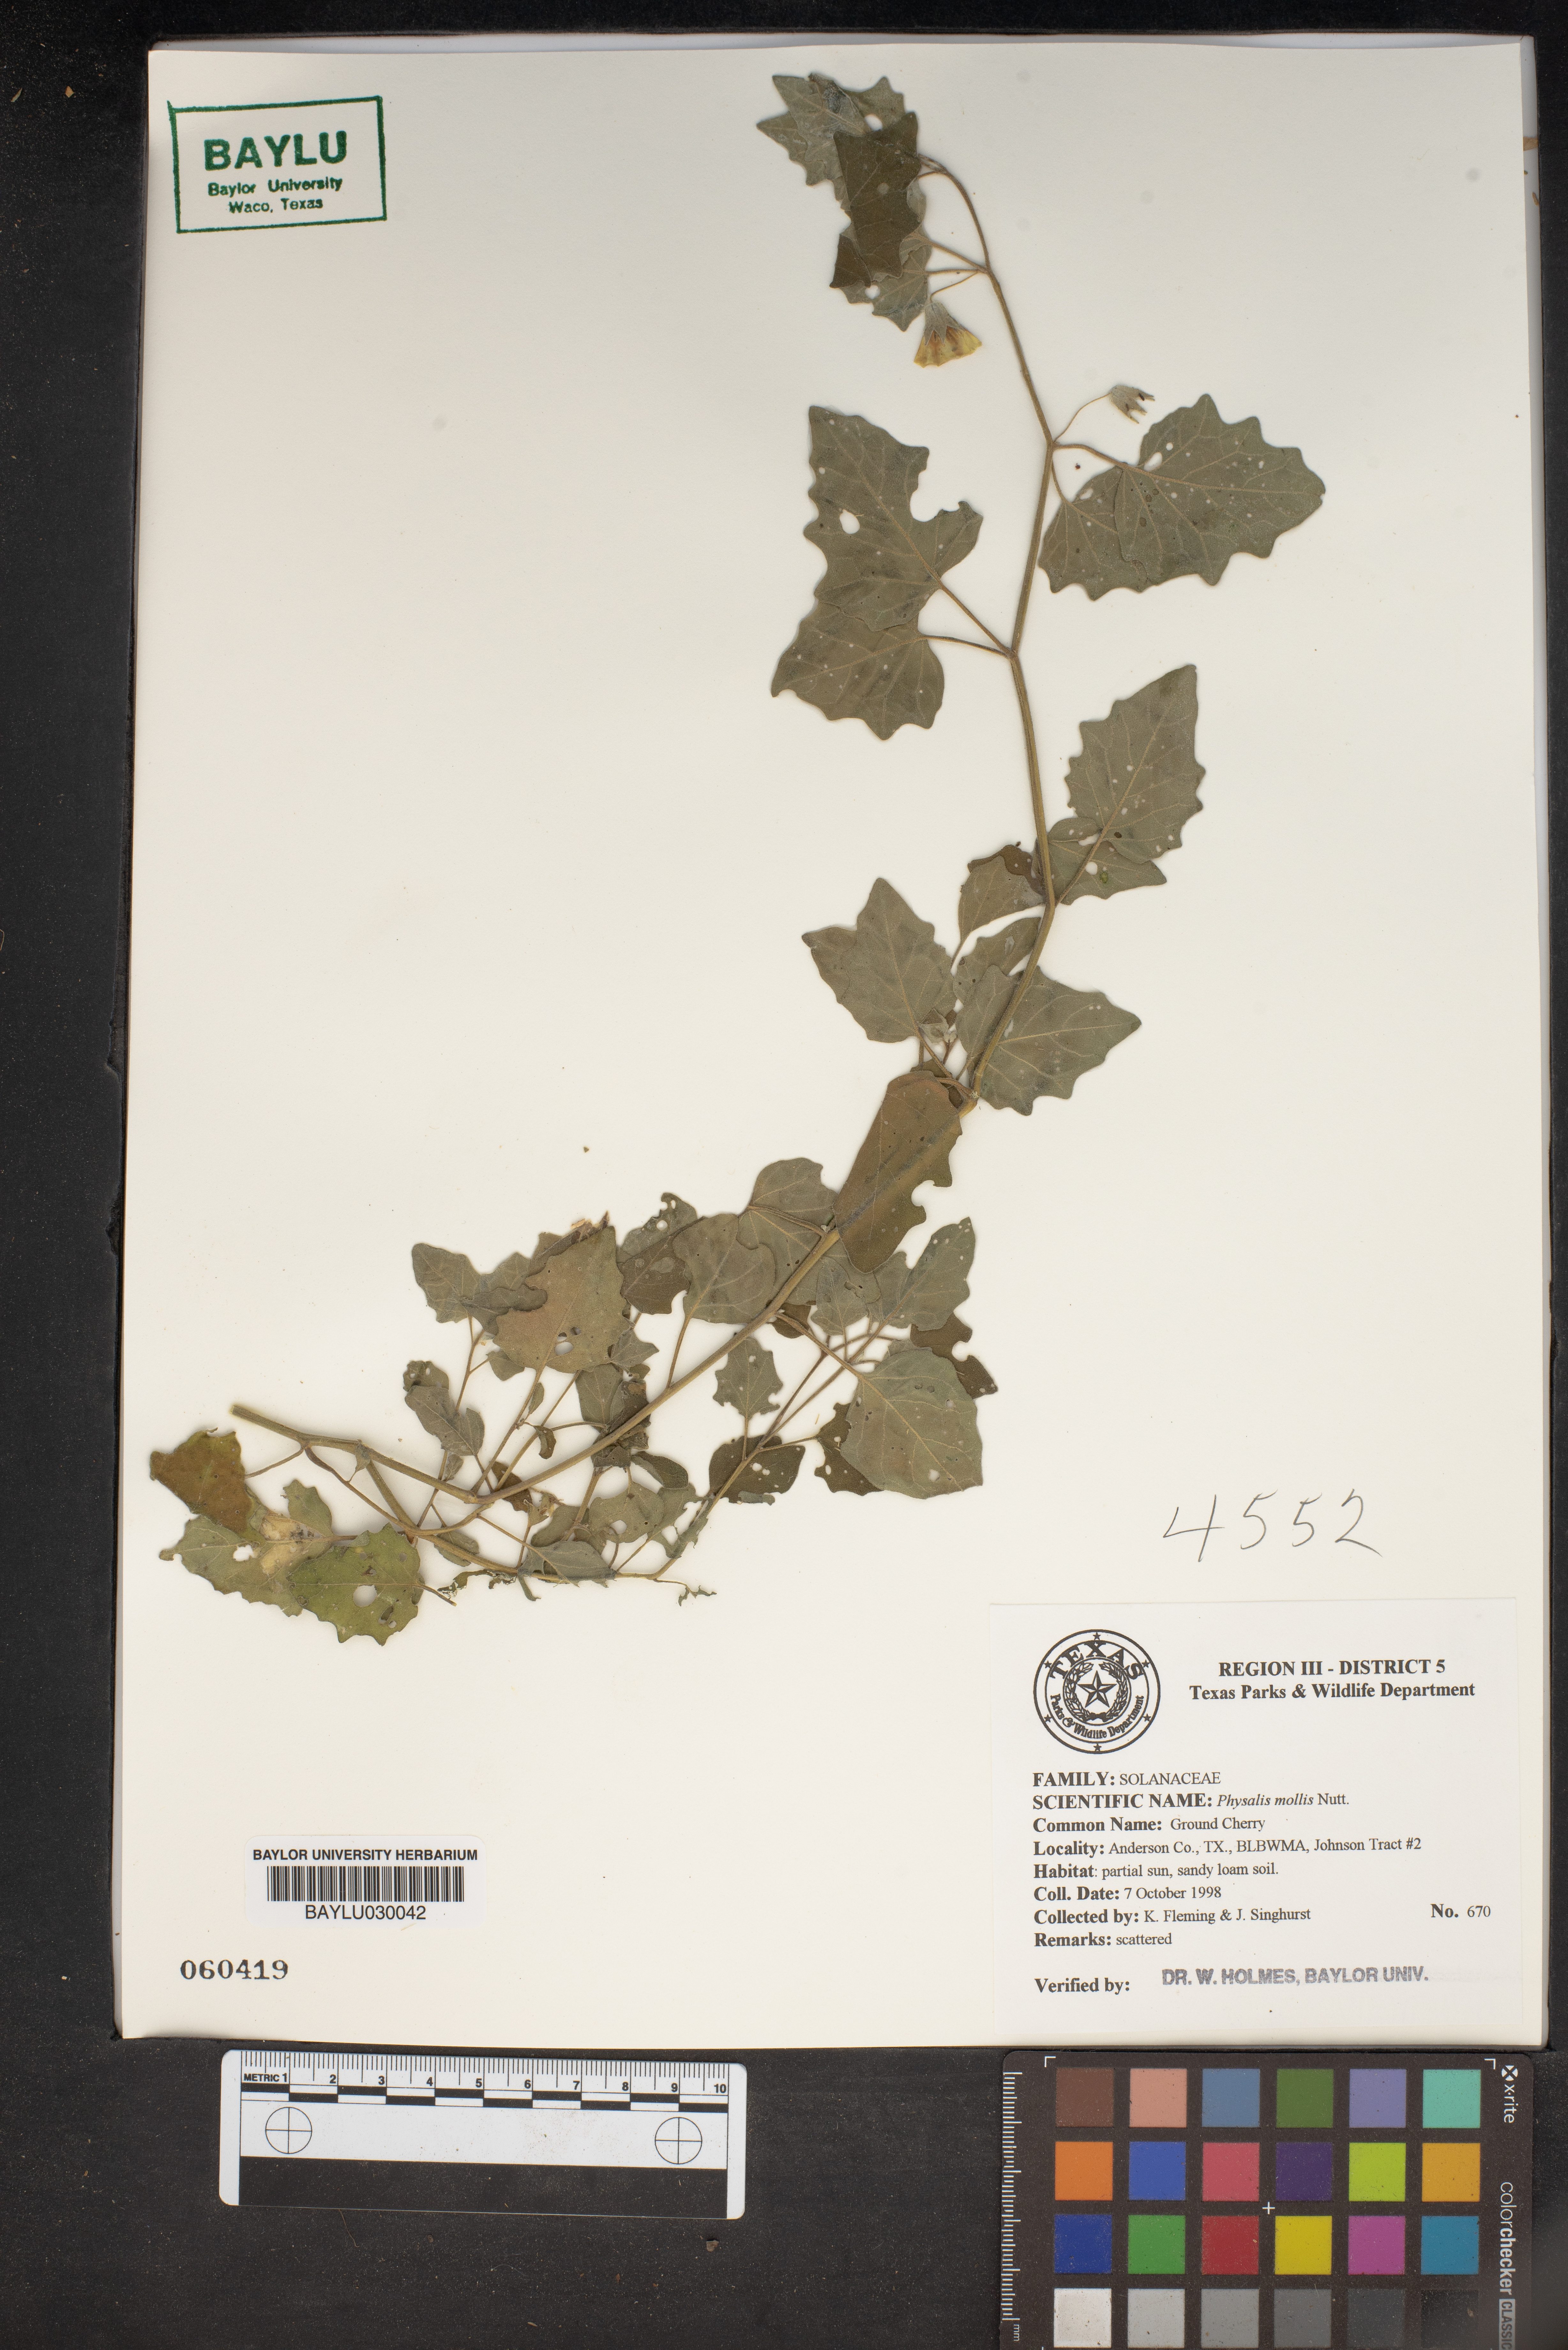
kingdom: Plantae
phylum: Tracheophyta
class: Magnoliopsida
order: Solanales
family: Solanaceae
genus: Physalis
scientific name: Physalis mollis
